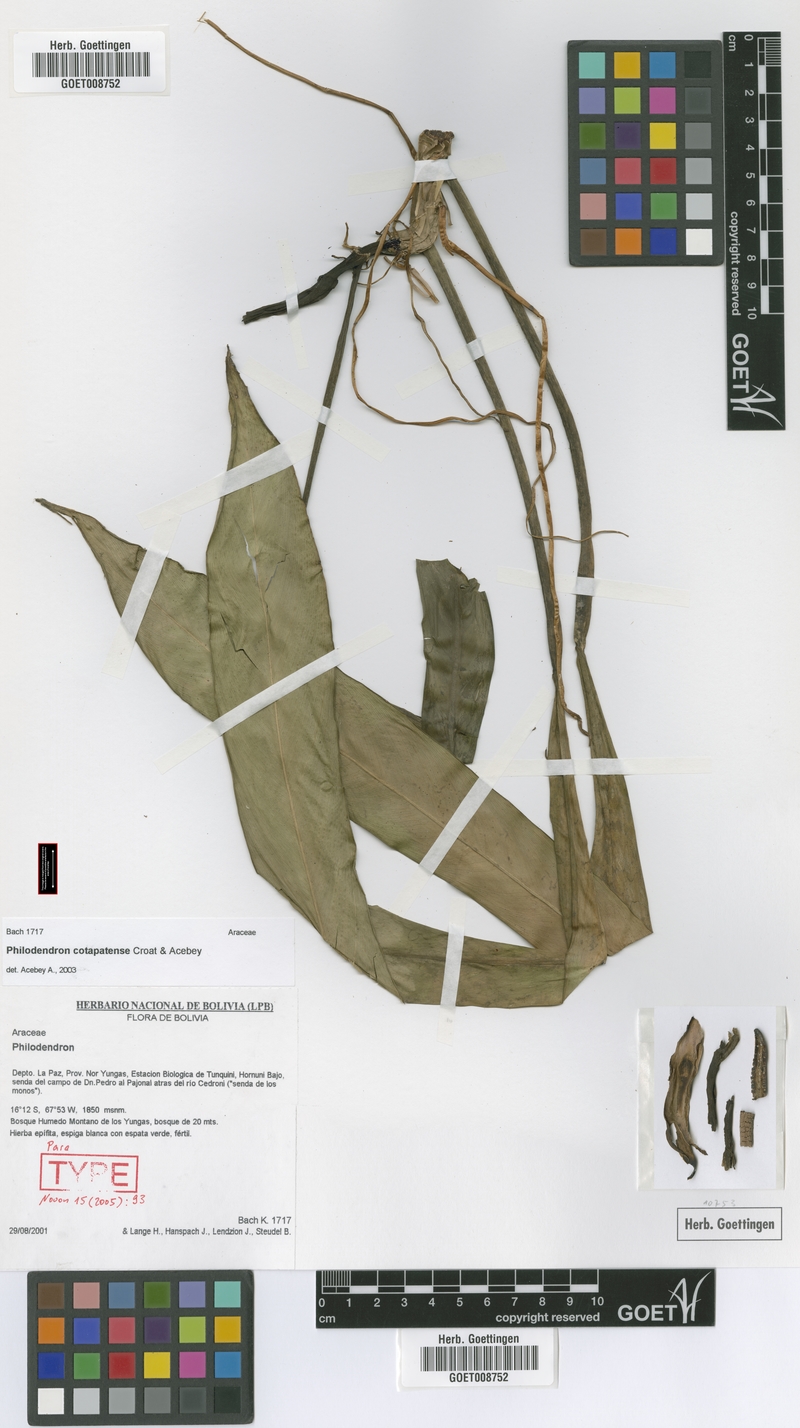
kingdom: Plantae
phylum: Tracheophyta
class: Liliopsida
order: Alismatales
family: Araceae
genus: Philodendron
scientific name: Philodendron cotapatense
